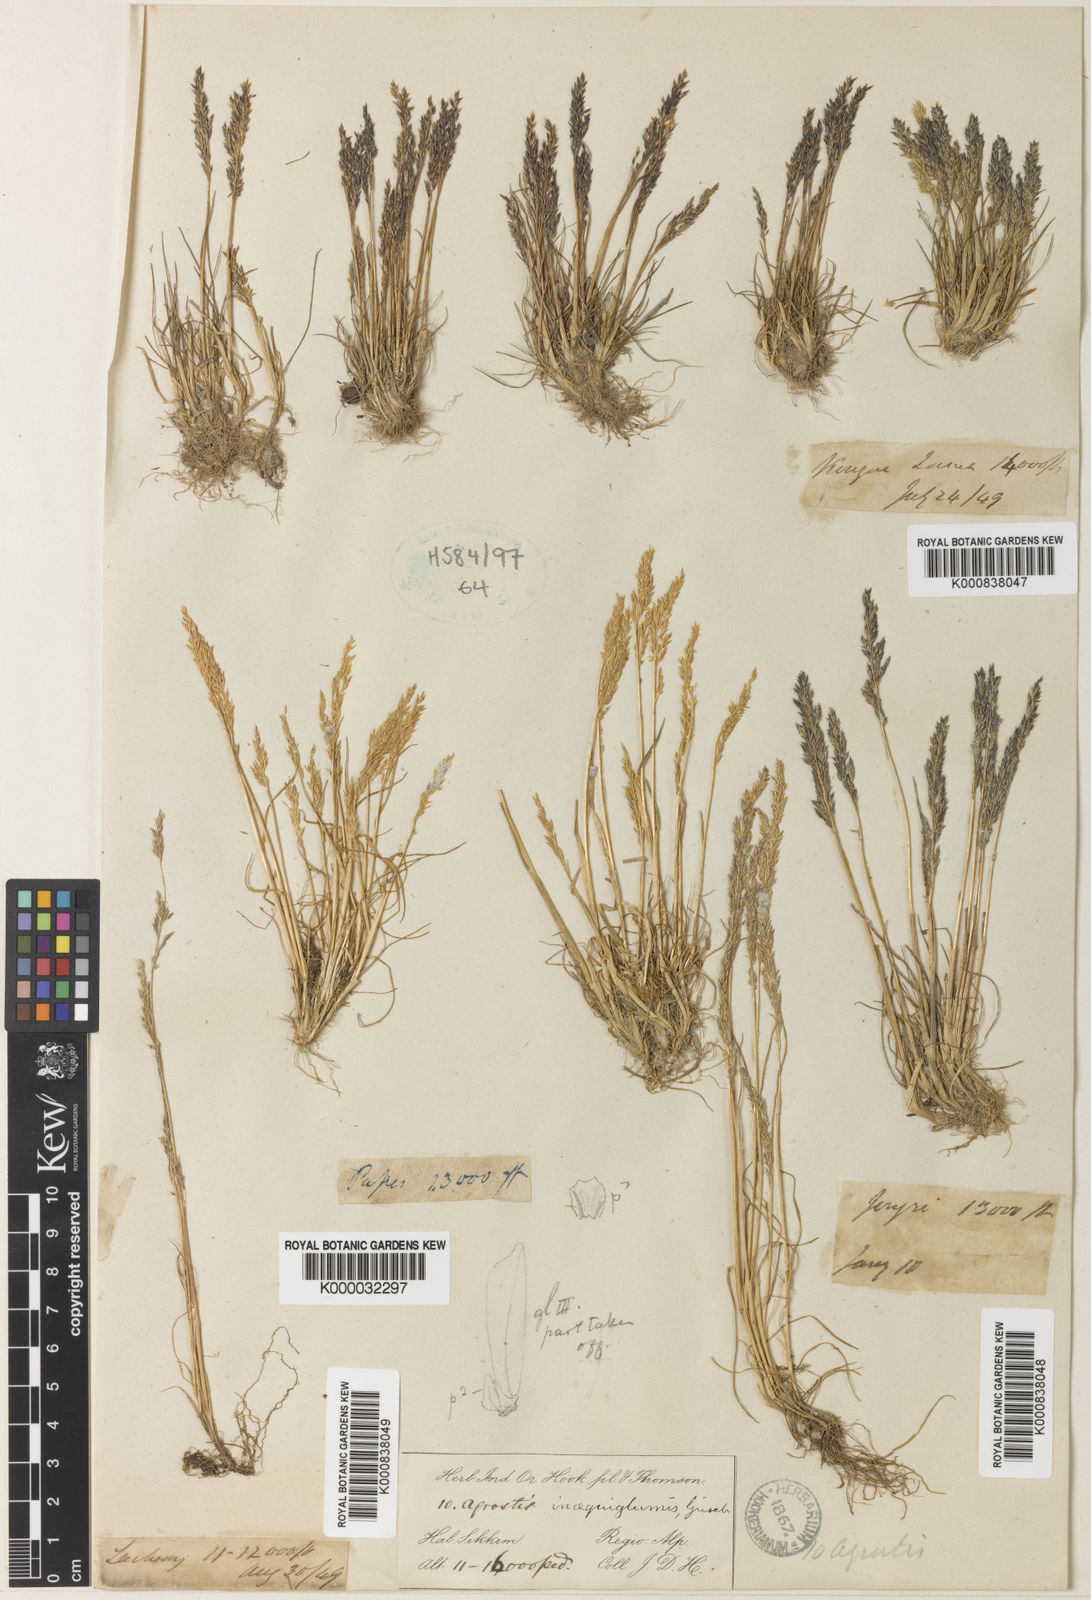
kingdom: Plantae
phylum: Tracheophyta
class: Liliopsida
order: Poales
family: Poaceae
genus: Agrostis
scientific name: Agrostis inaequiglumis
